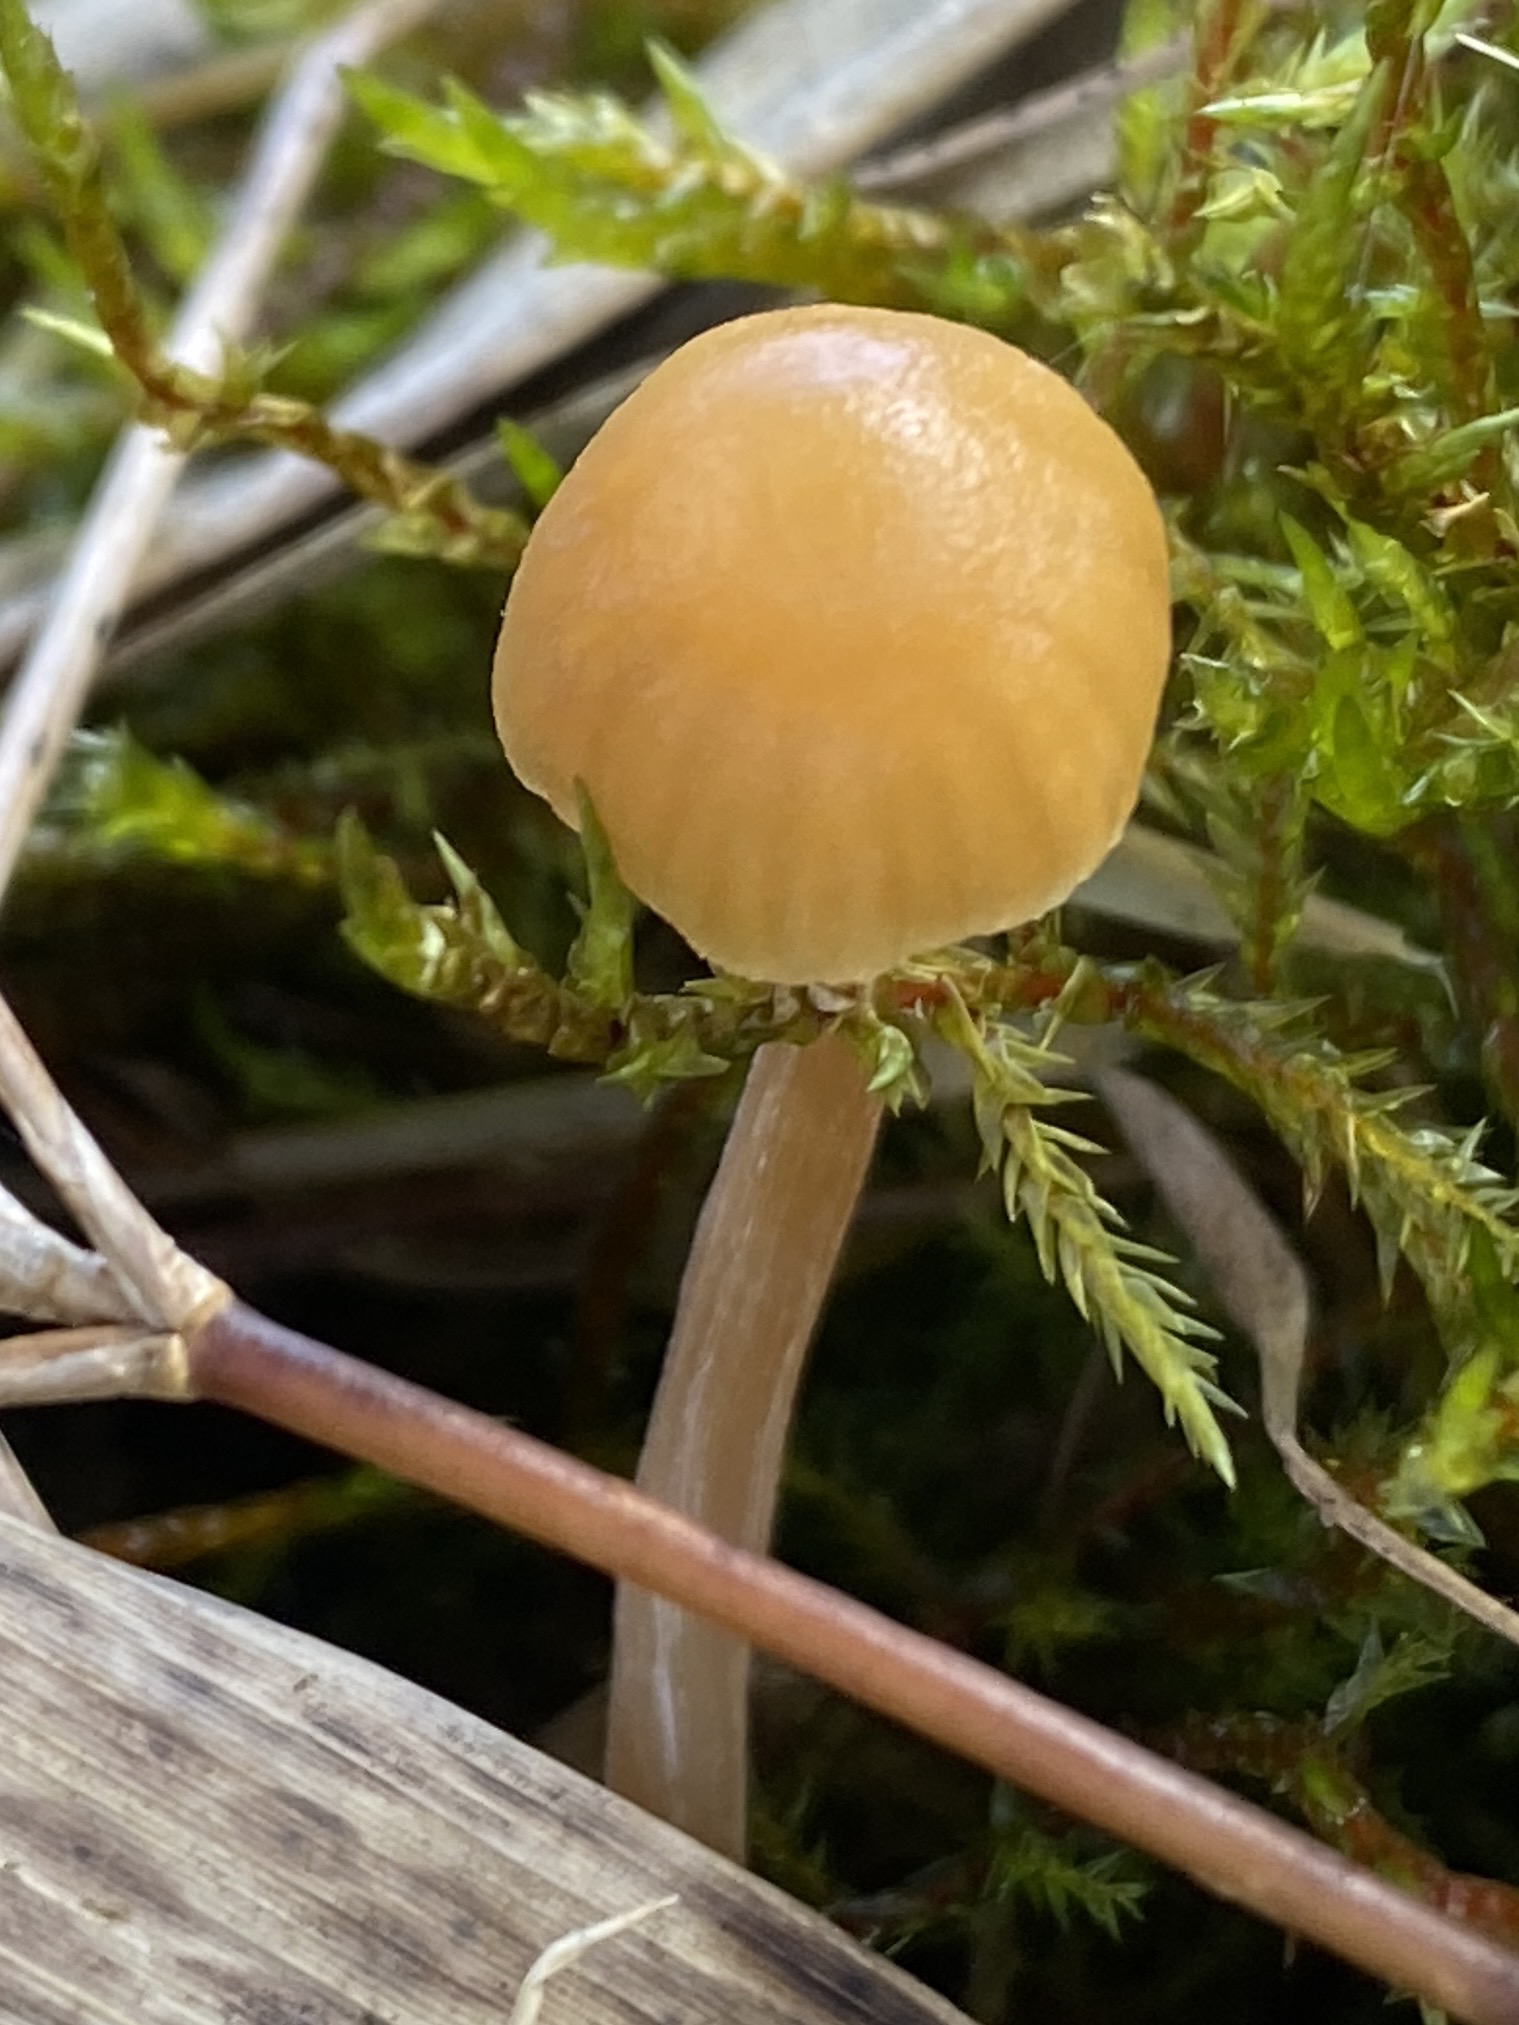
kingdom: Fungi
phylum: Basidiomycota
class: Agaricomycetes
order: Agaricales
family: Hymenogastraceae
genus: Galerina
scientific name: Galerina
